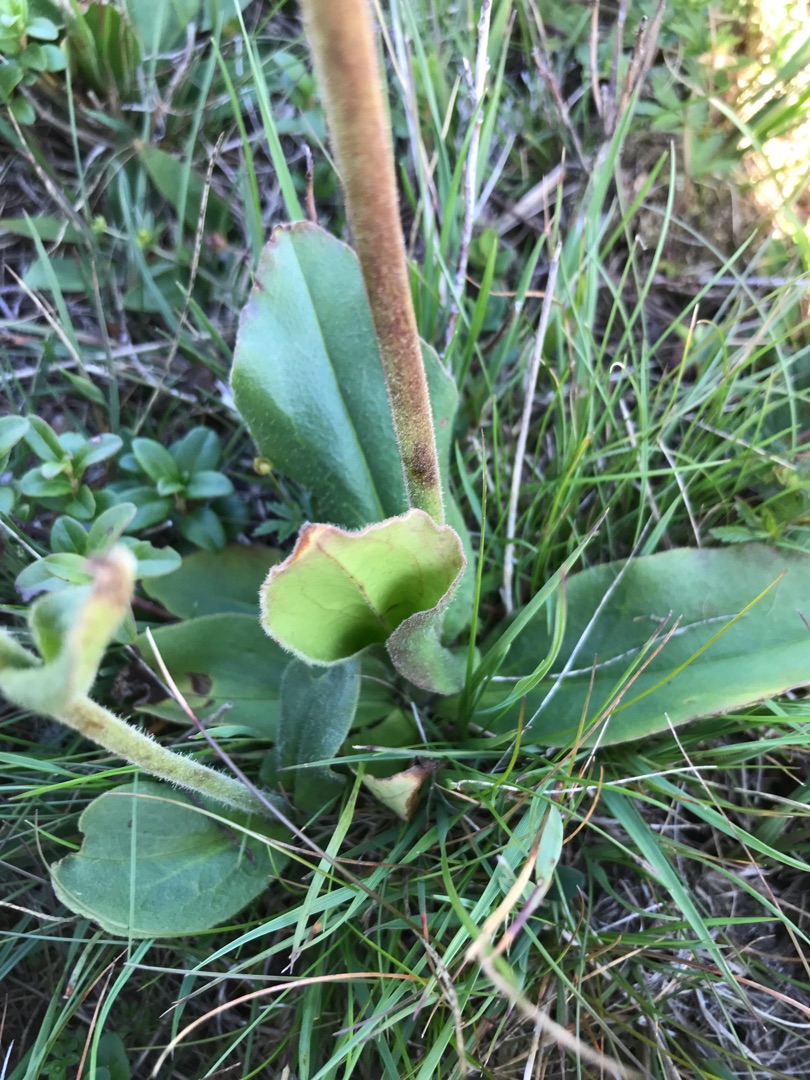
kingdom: Plantae
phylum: Tracheophyta
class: Magnoliopsida
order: Asterales
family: Asteraceae
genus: Arnica
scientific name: Arnica montana
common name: Guldblomme
